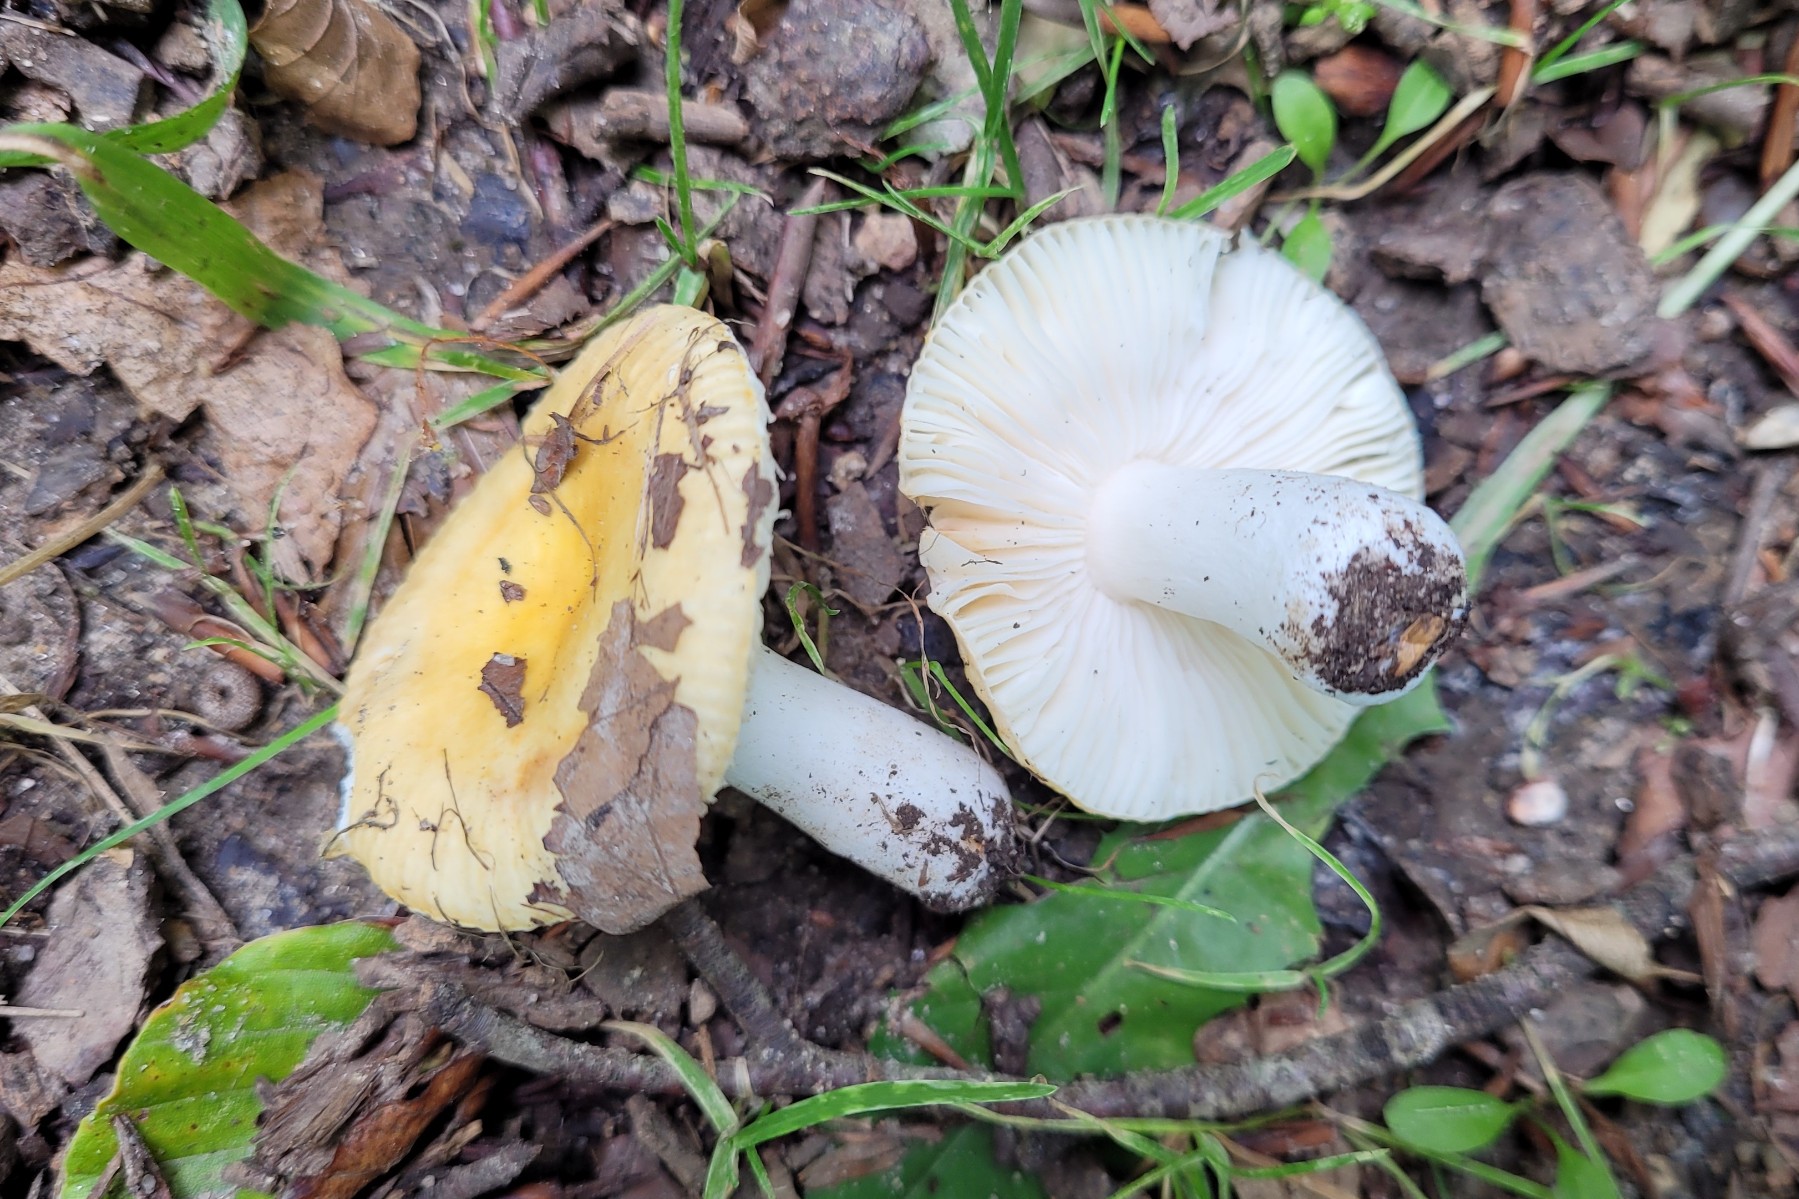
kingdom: Fungi
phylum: Basidiomycota
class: Agaricomycetes
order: Russulales
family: Russulaceae
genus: Russula
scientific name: Russula solaris
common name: sol-skørhat
